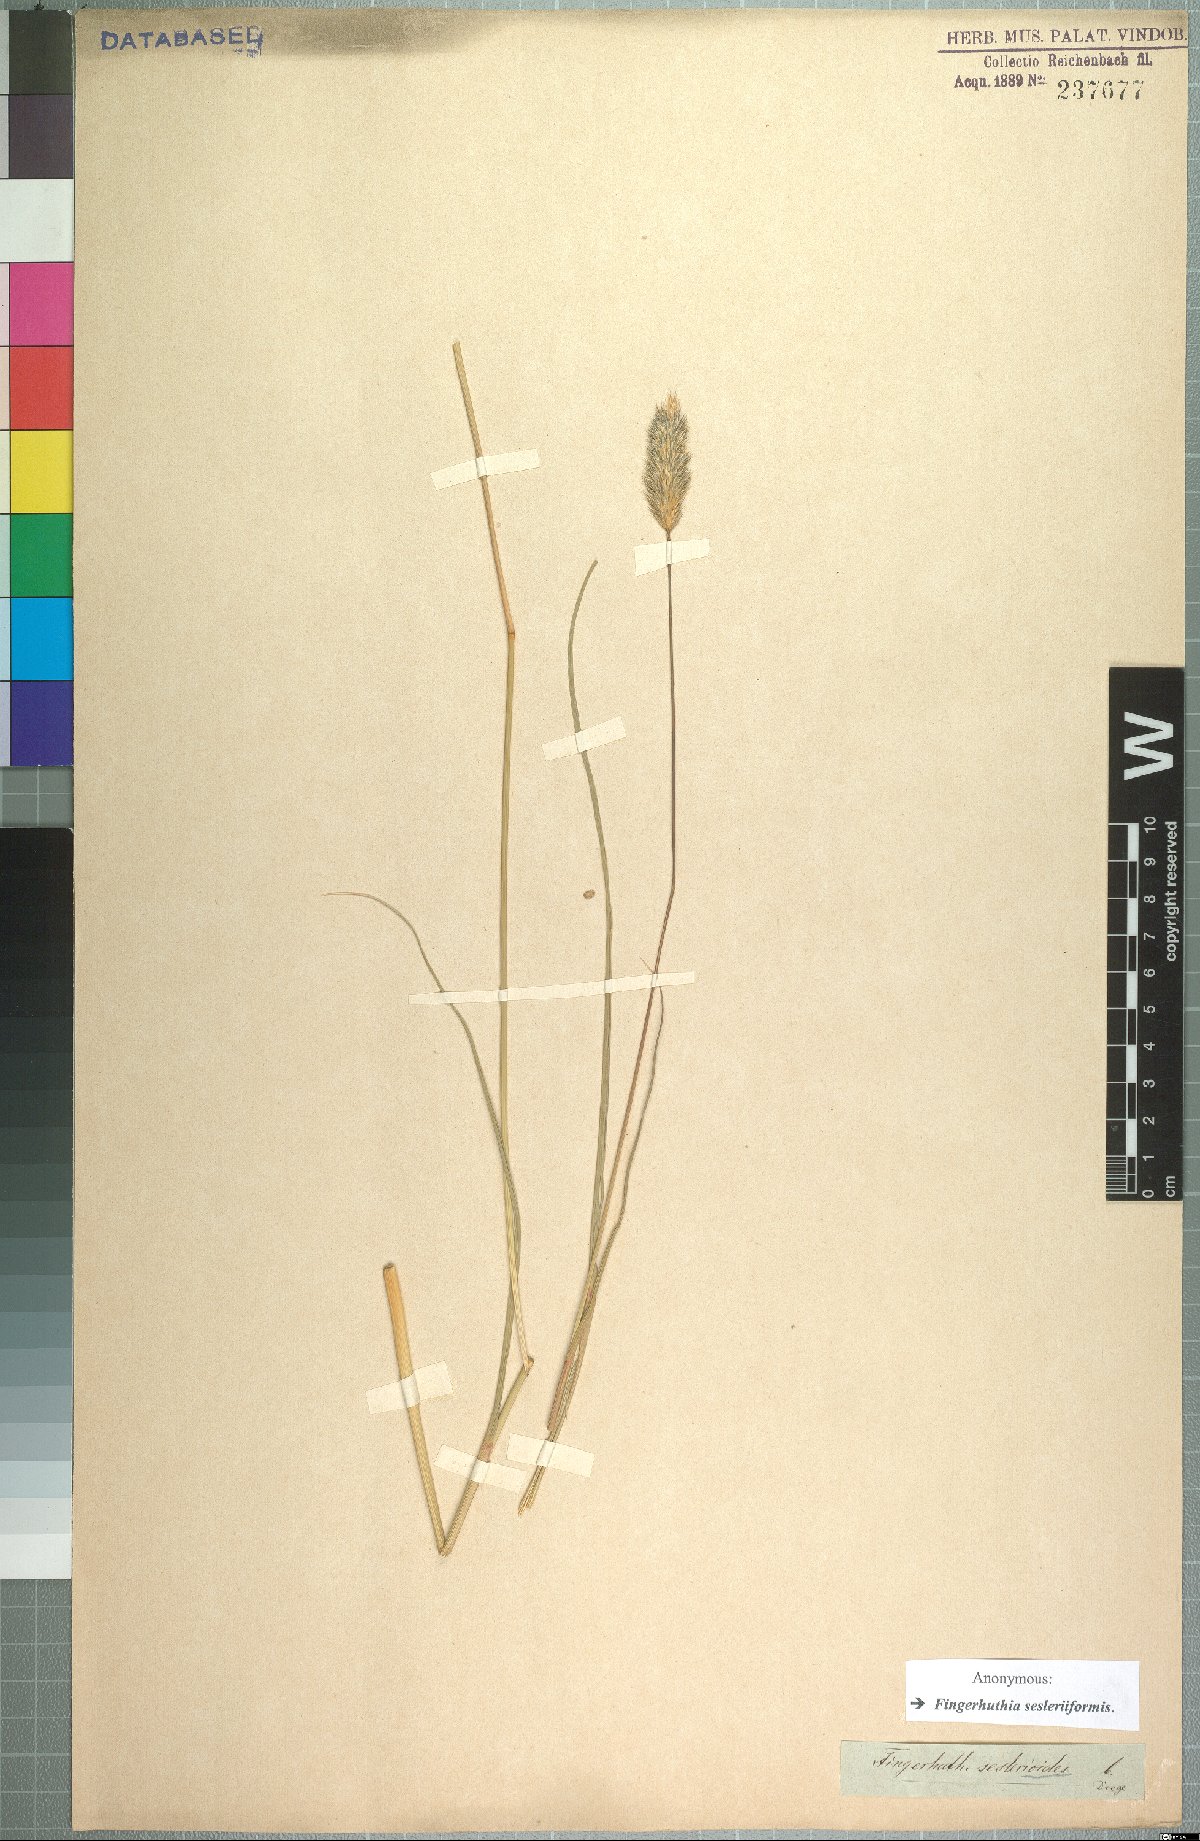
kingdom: Plantae
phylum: Tracheophyta
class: Liliopsida
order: Poales
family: Poaceae
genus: Fingerhuthia
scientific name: Fingerhuthia sesleriiformis
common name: Thimble grass
